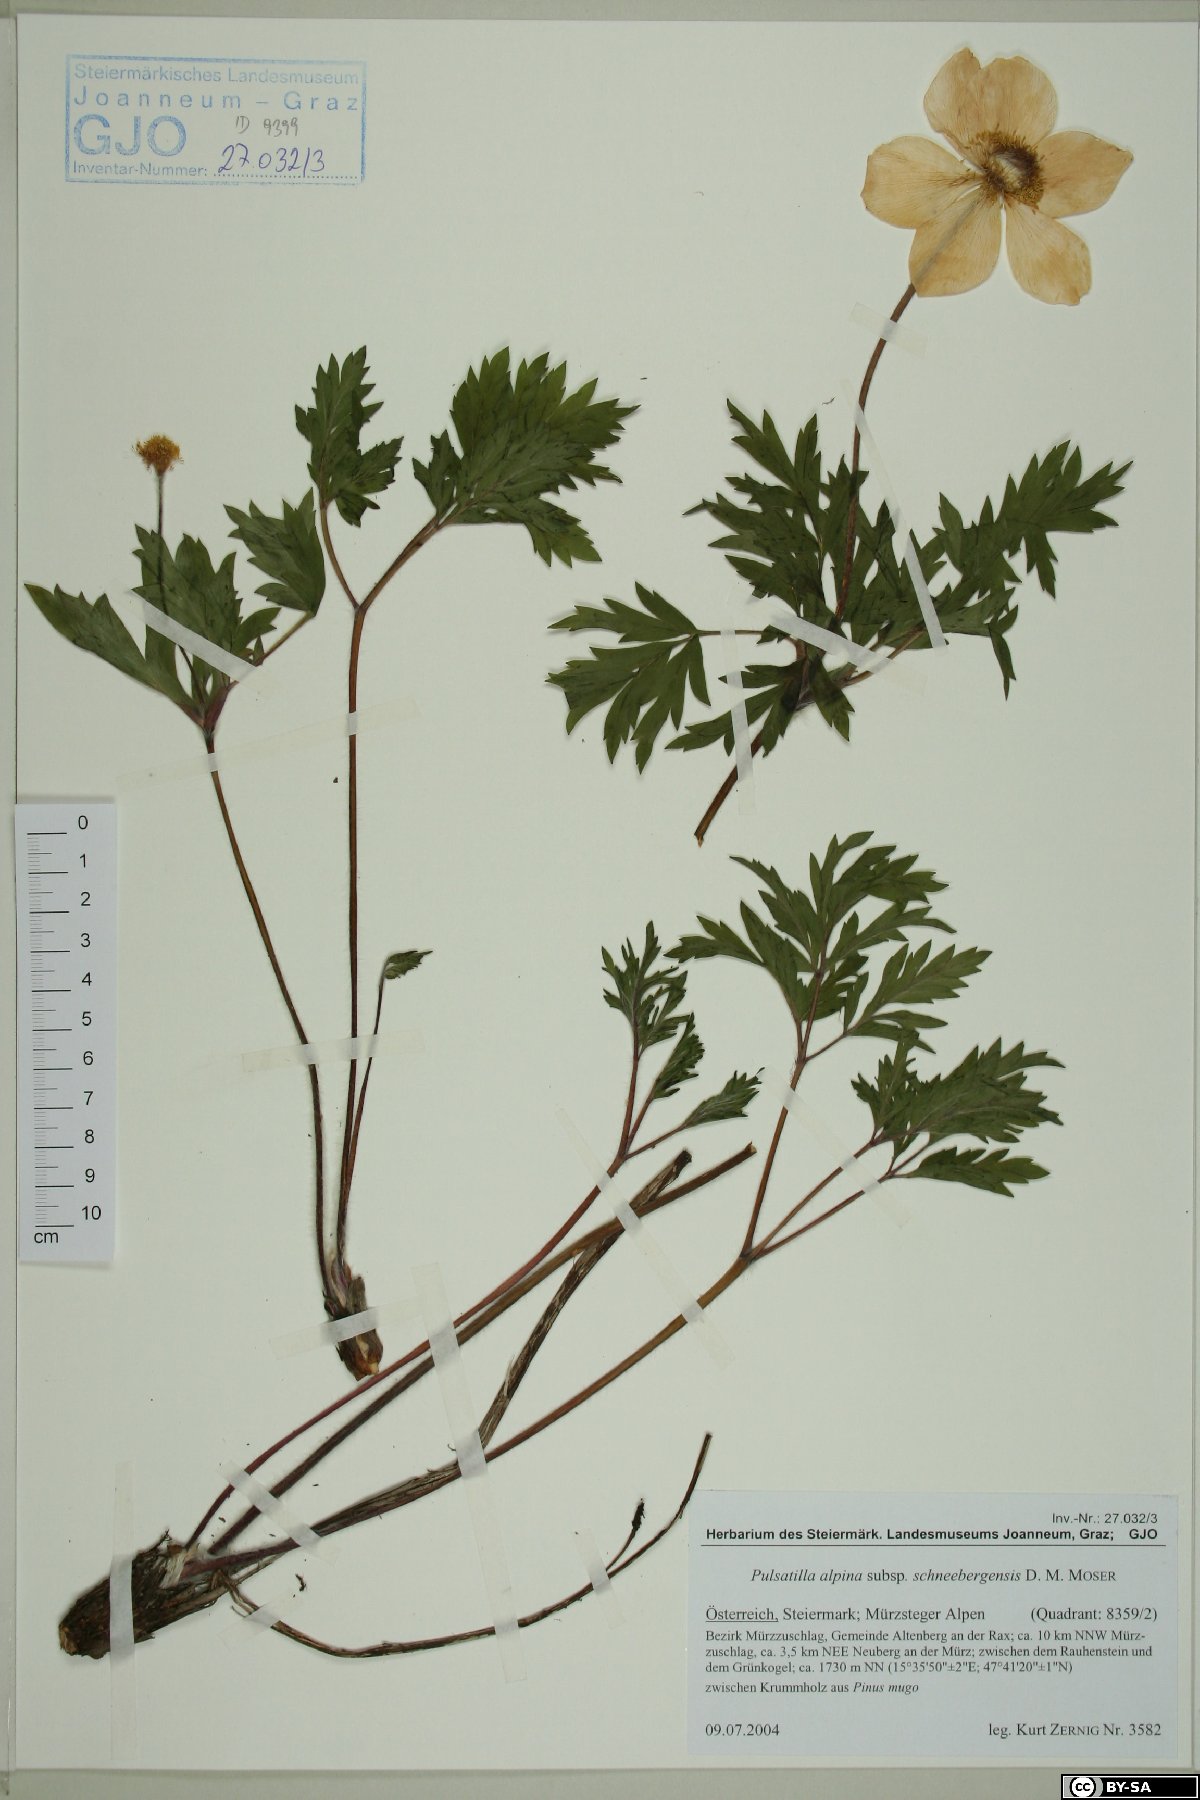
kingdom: Plantae
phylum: Tracheophyta
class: Magnoliopsida
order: Ranunculales
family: Ranunculaceae
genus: Pulsatilla
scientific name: Pulsatilla alpina
